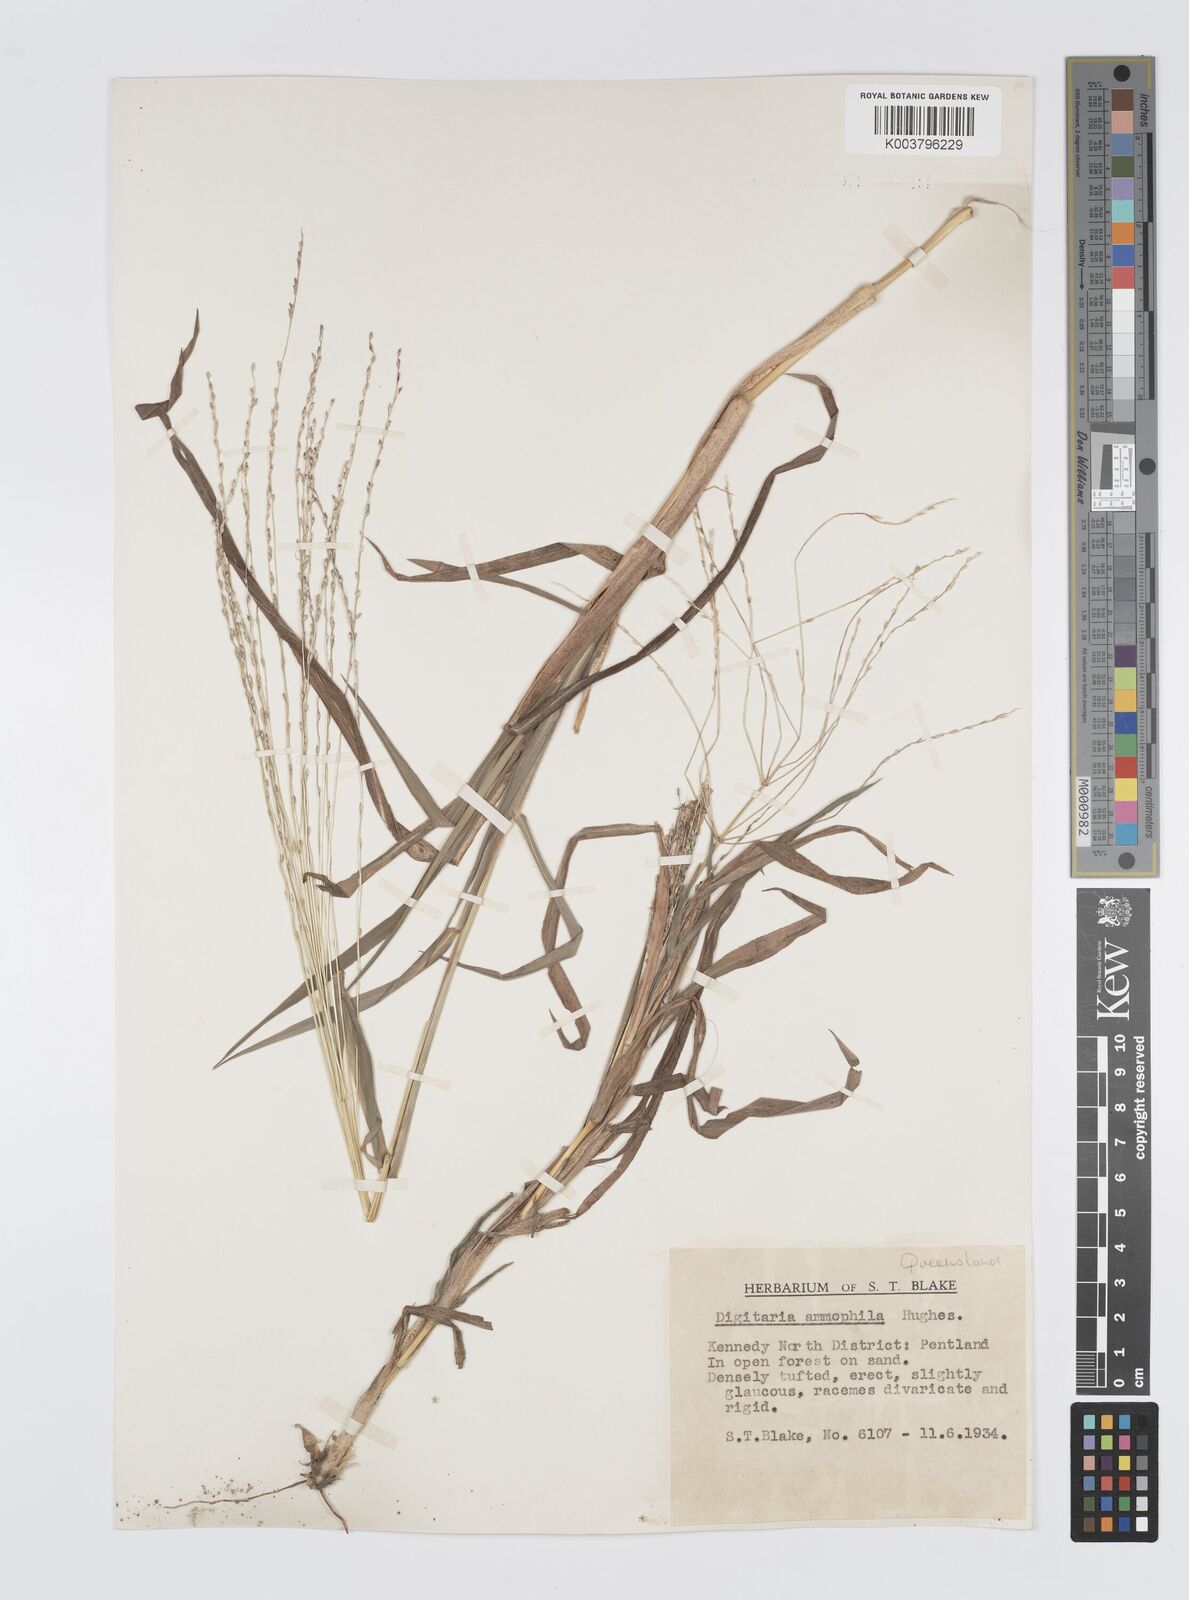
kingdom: Plantae
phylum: Tracheophyta
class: Liliopsida
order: Poales
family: Poaceae
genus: Digitaria
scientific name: Digitaria ammophila
